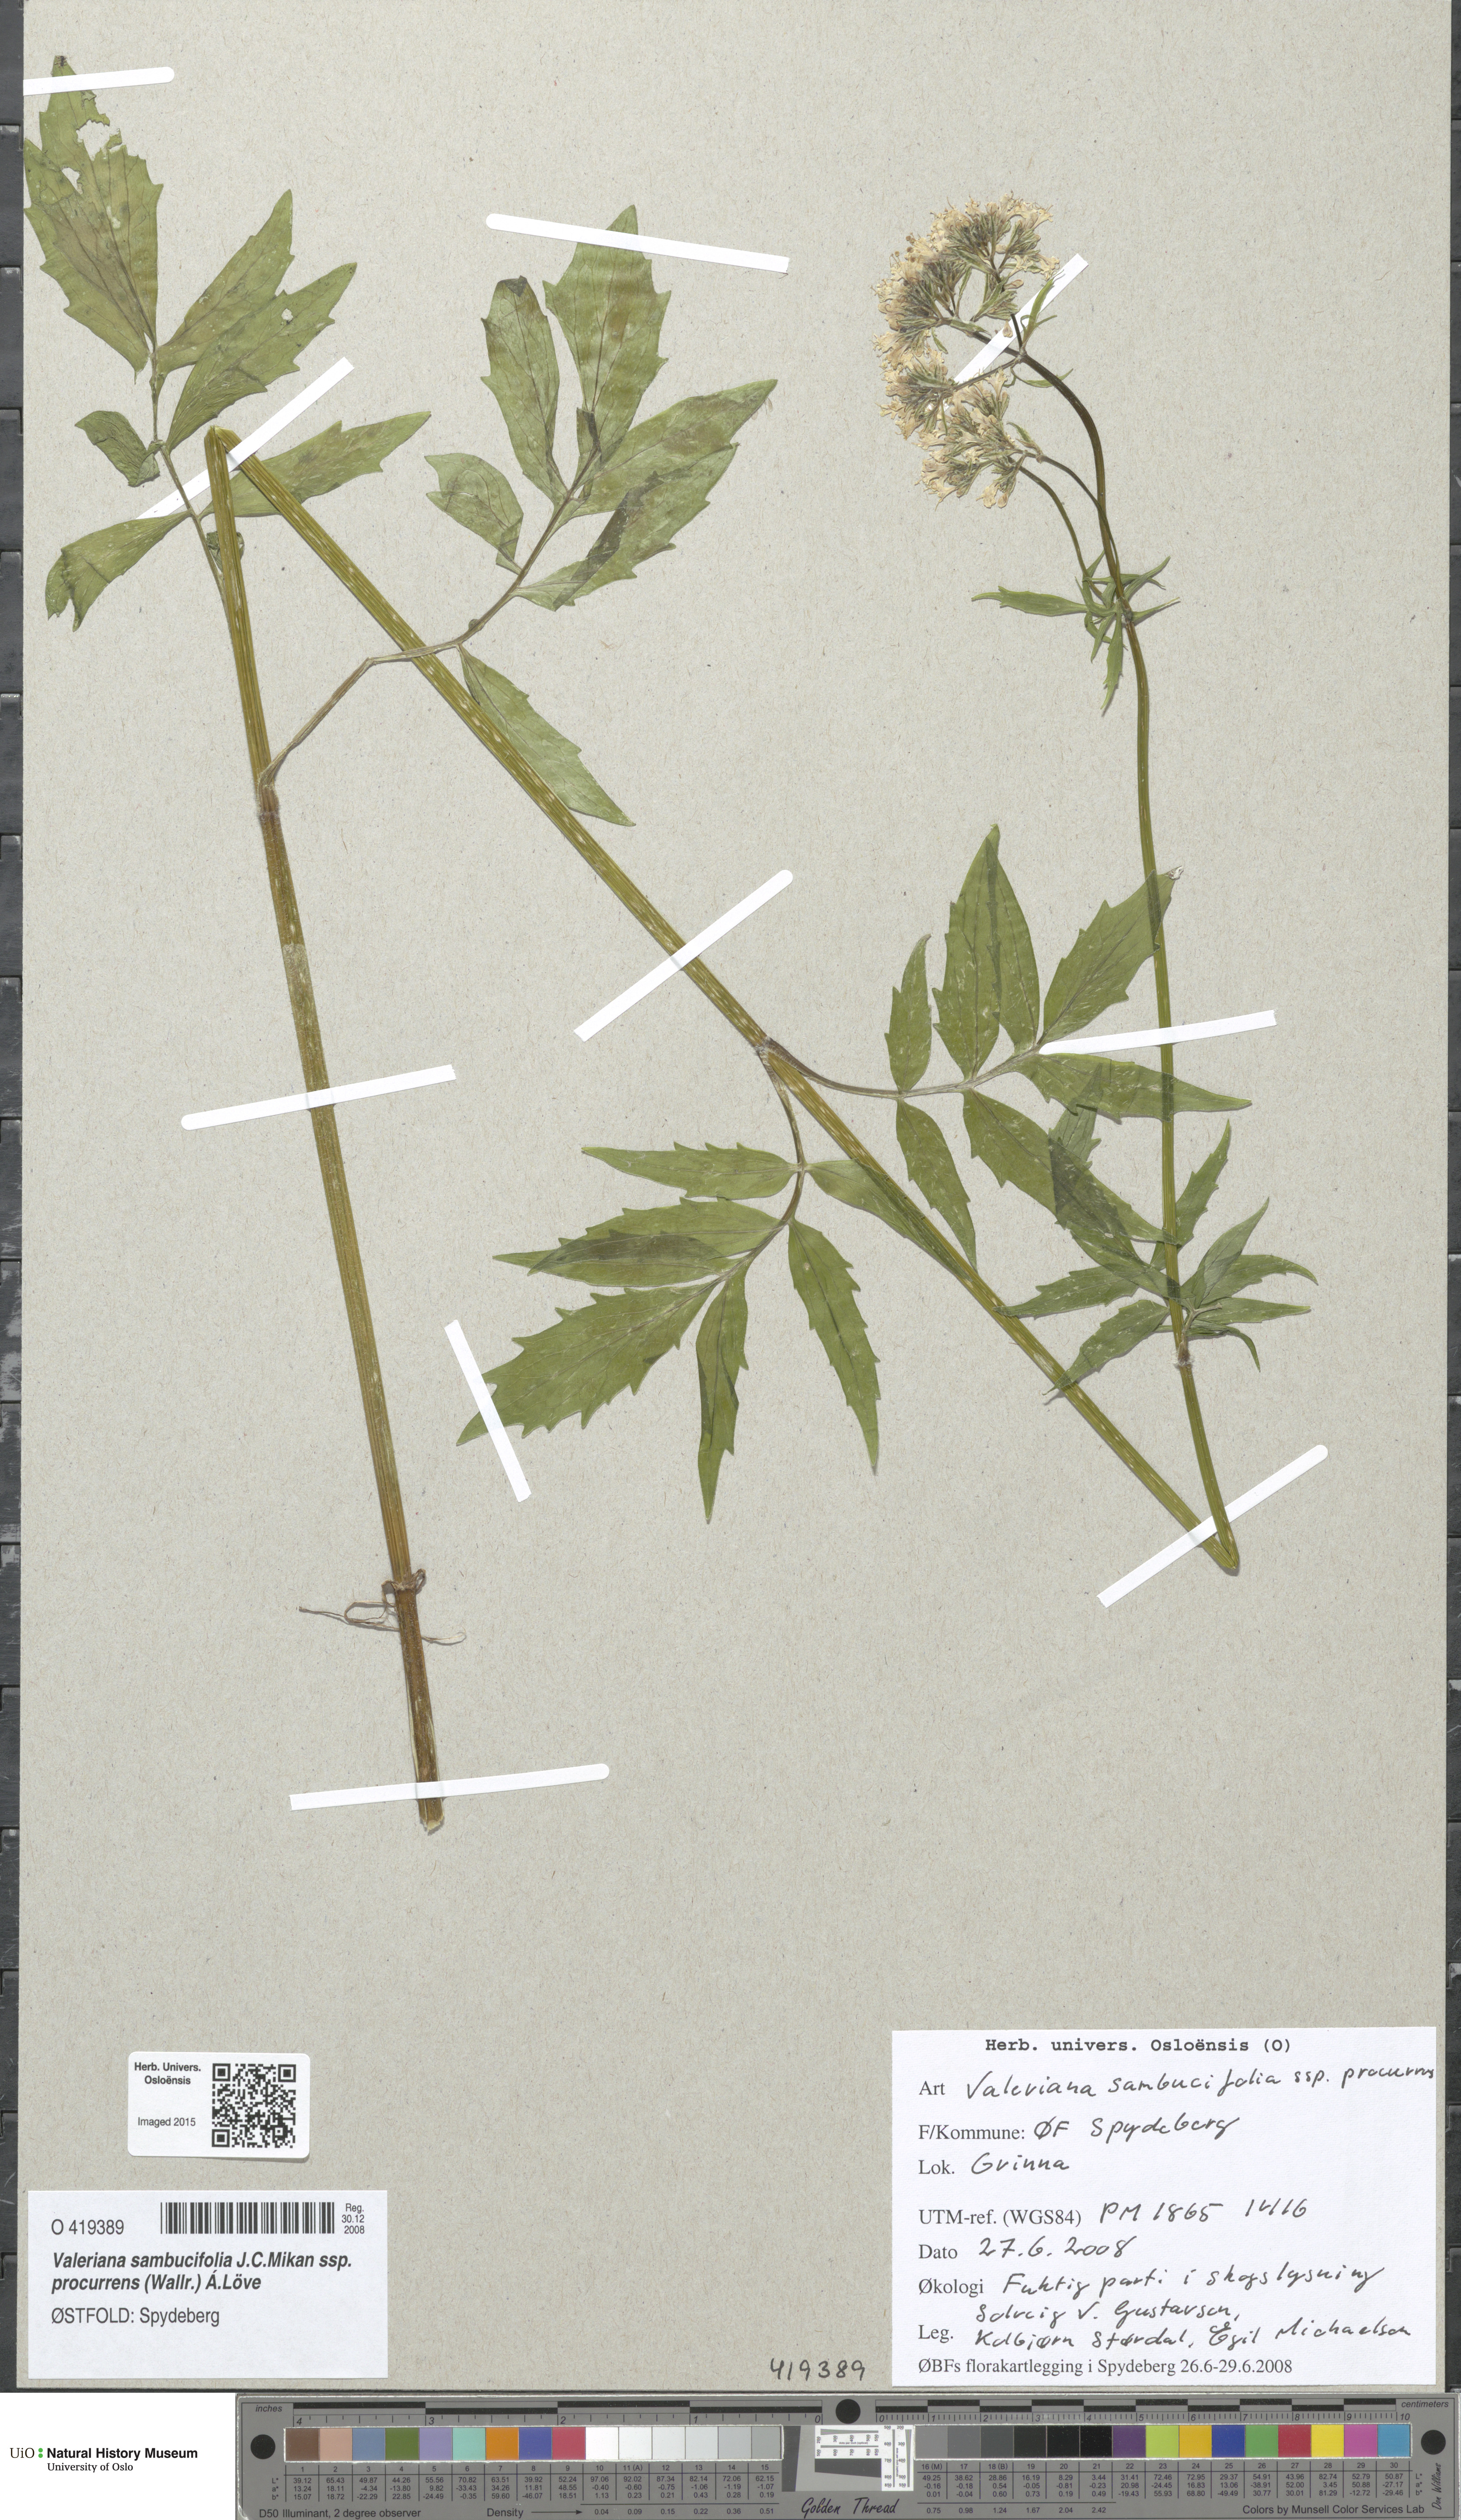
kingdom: Plantae
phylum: Tracheophyta
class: Magnoliopsida
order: Dipsacales
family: Caprifoliaceae
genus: Valeriana
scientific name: Valeriana excelsa
